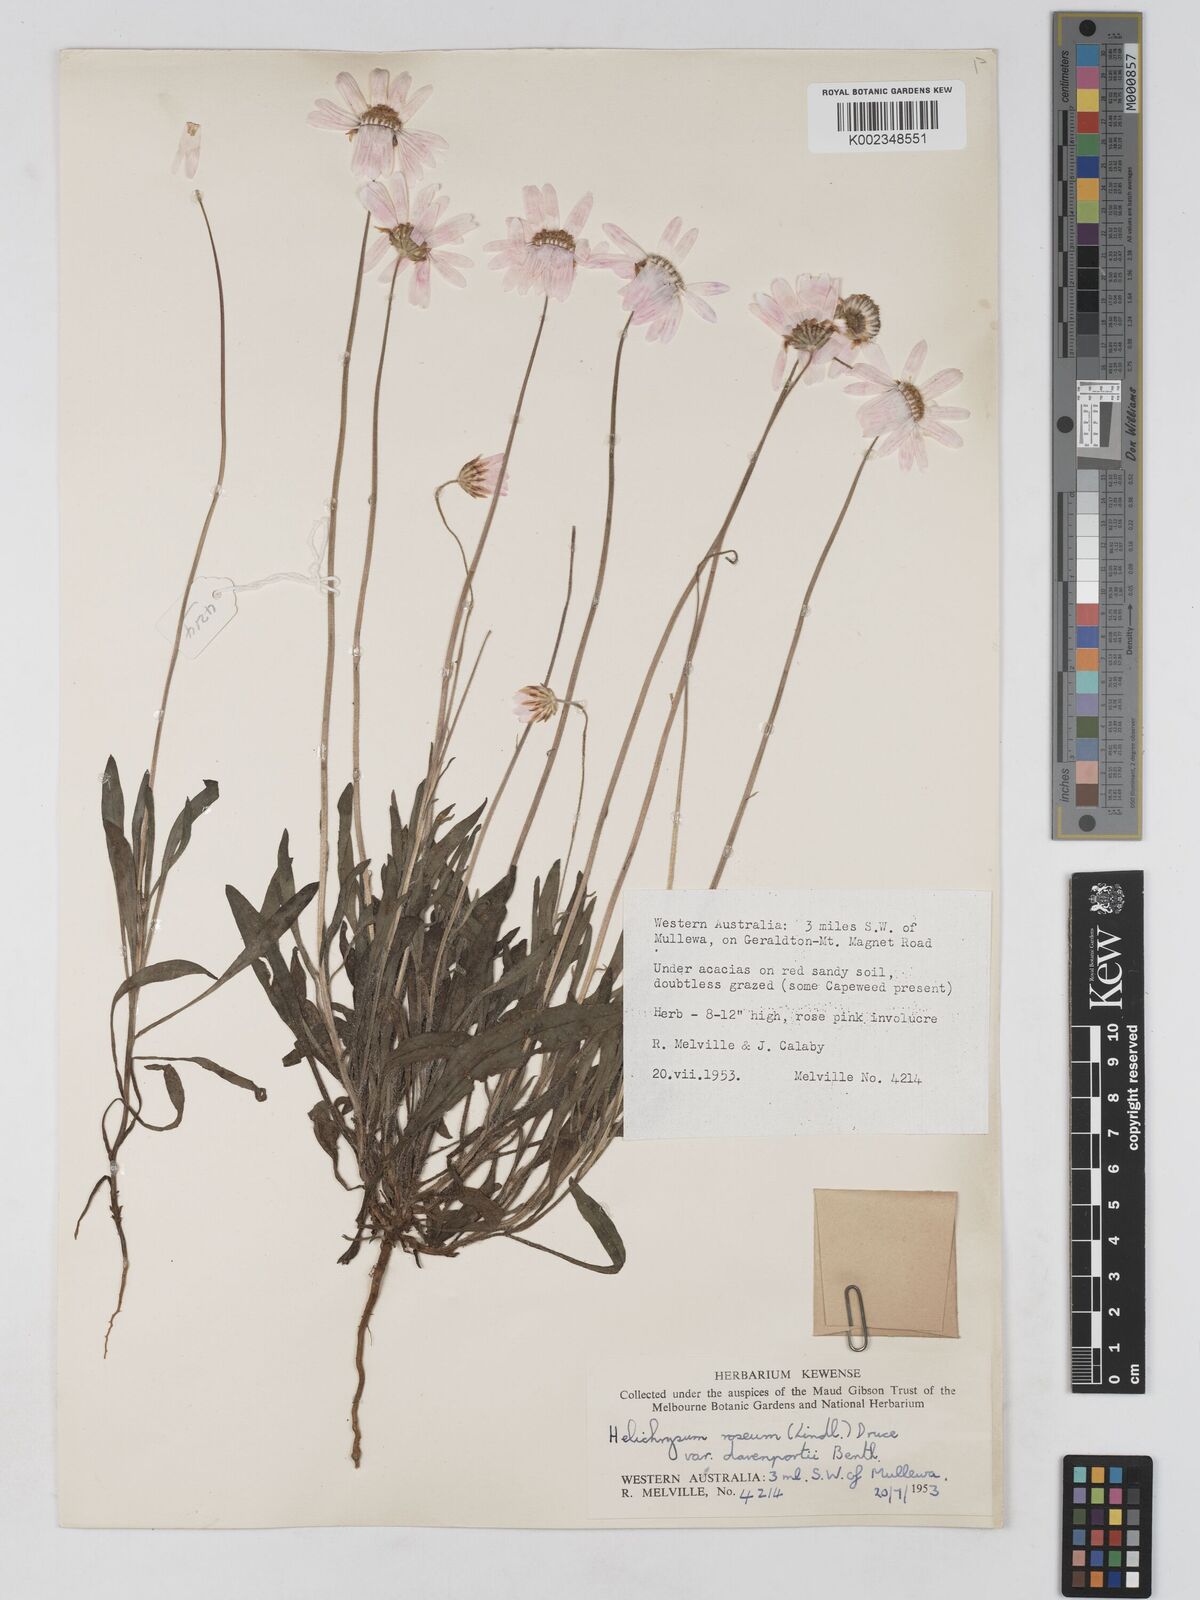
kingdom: Plantae
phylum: Tracheophyta
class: Magnoliopsida
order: Asterales
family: Asteraceae
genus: Lawrencella
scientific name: Lawrencella davenportii
